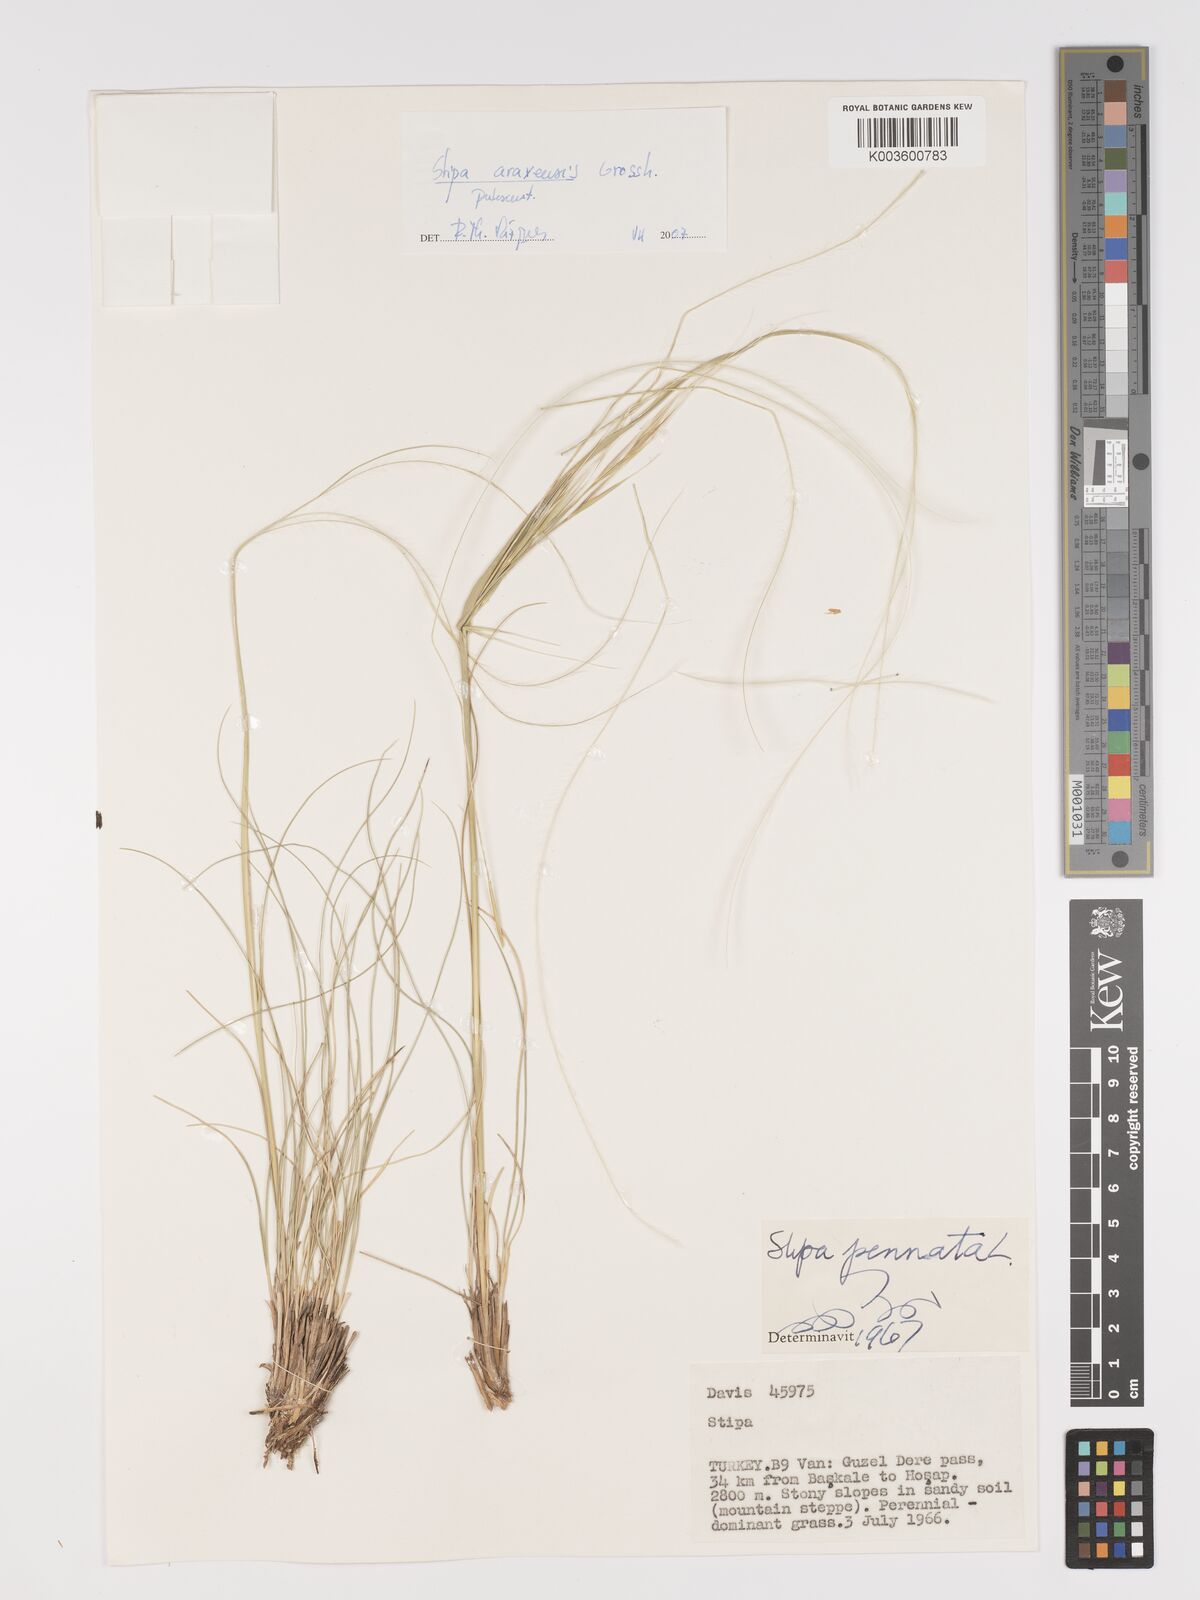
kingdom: Plantae
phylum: Tracheophyta
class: Liliopsida
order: Poales
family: Poaceae
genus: Stipa
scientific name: Stipa araxensis
